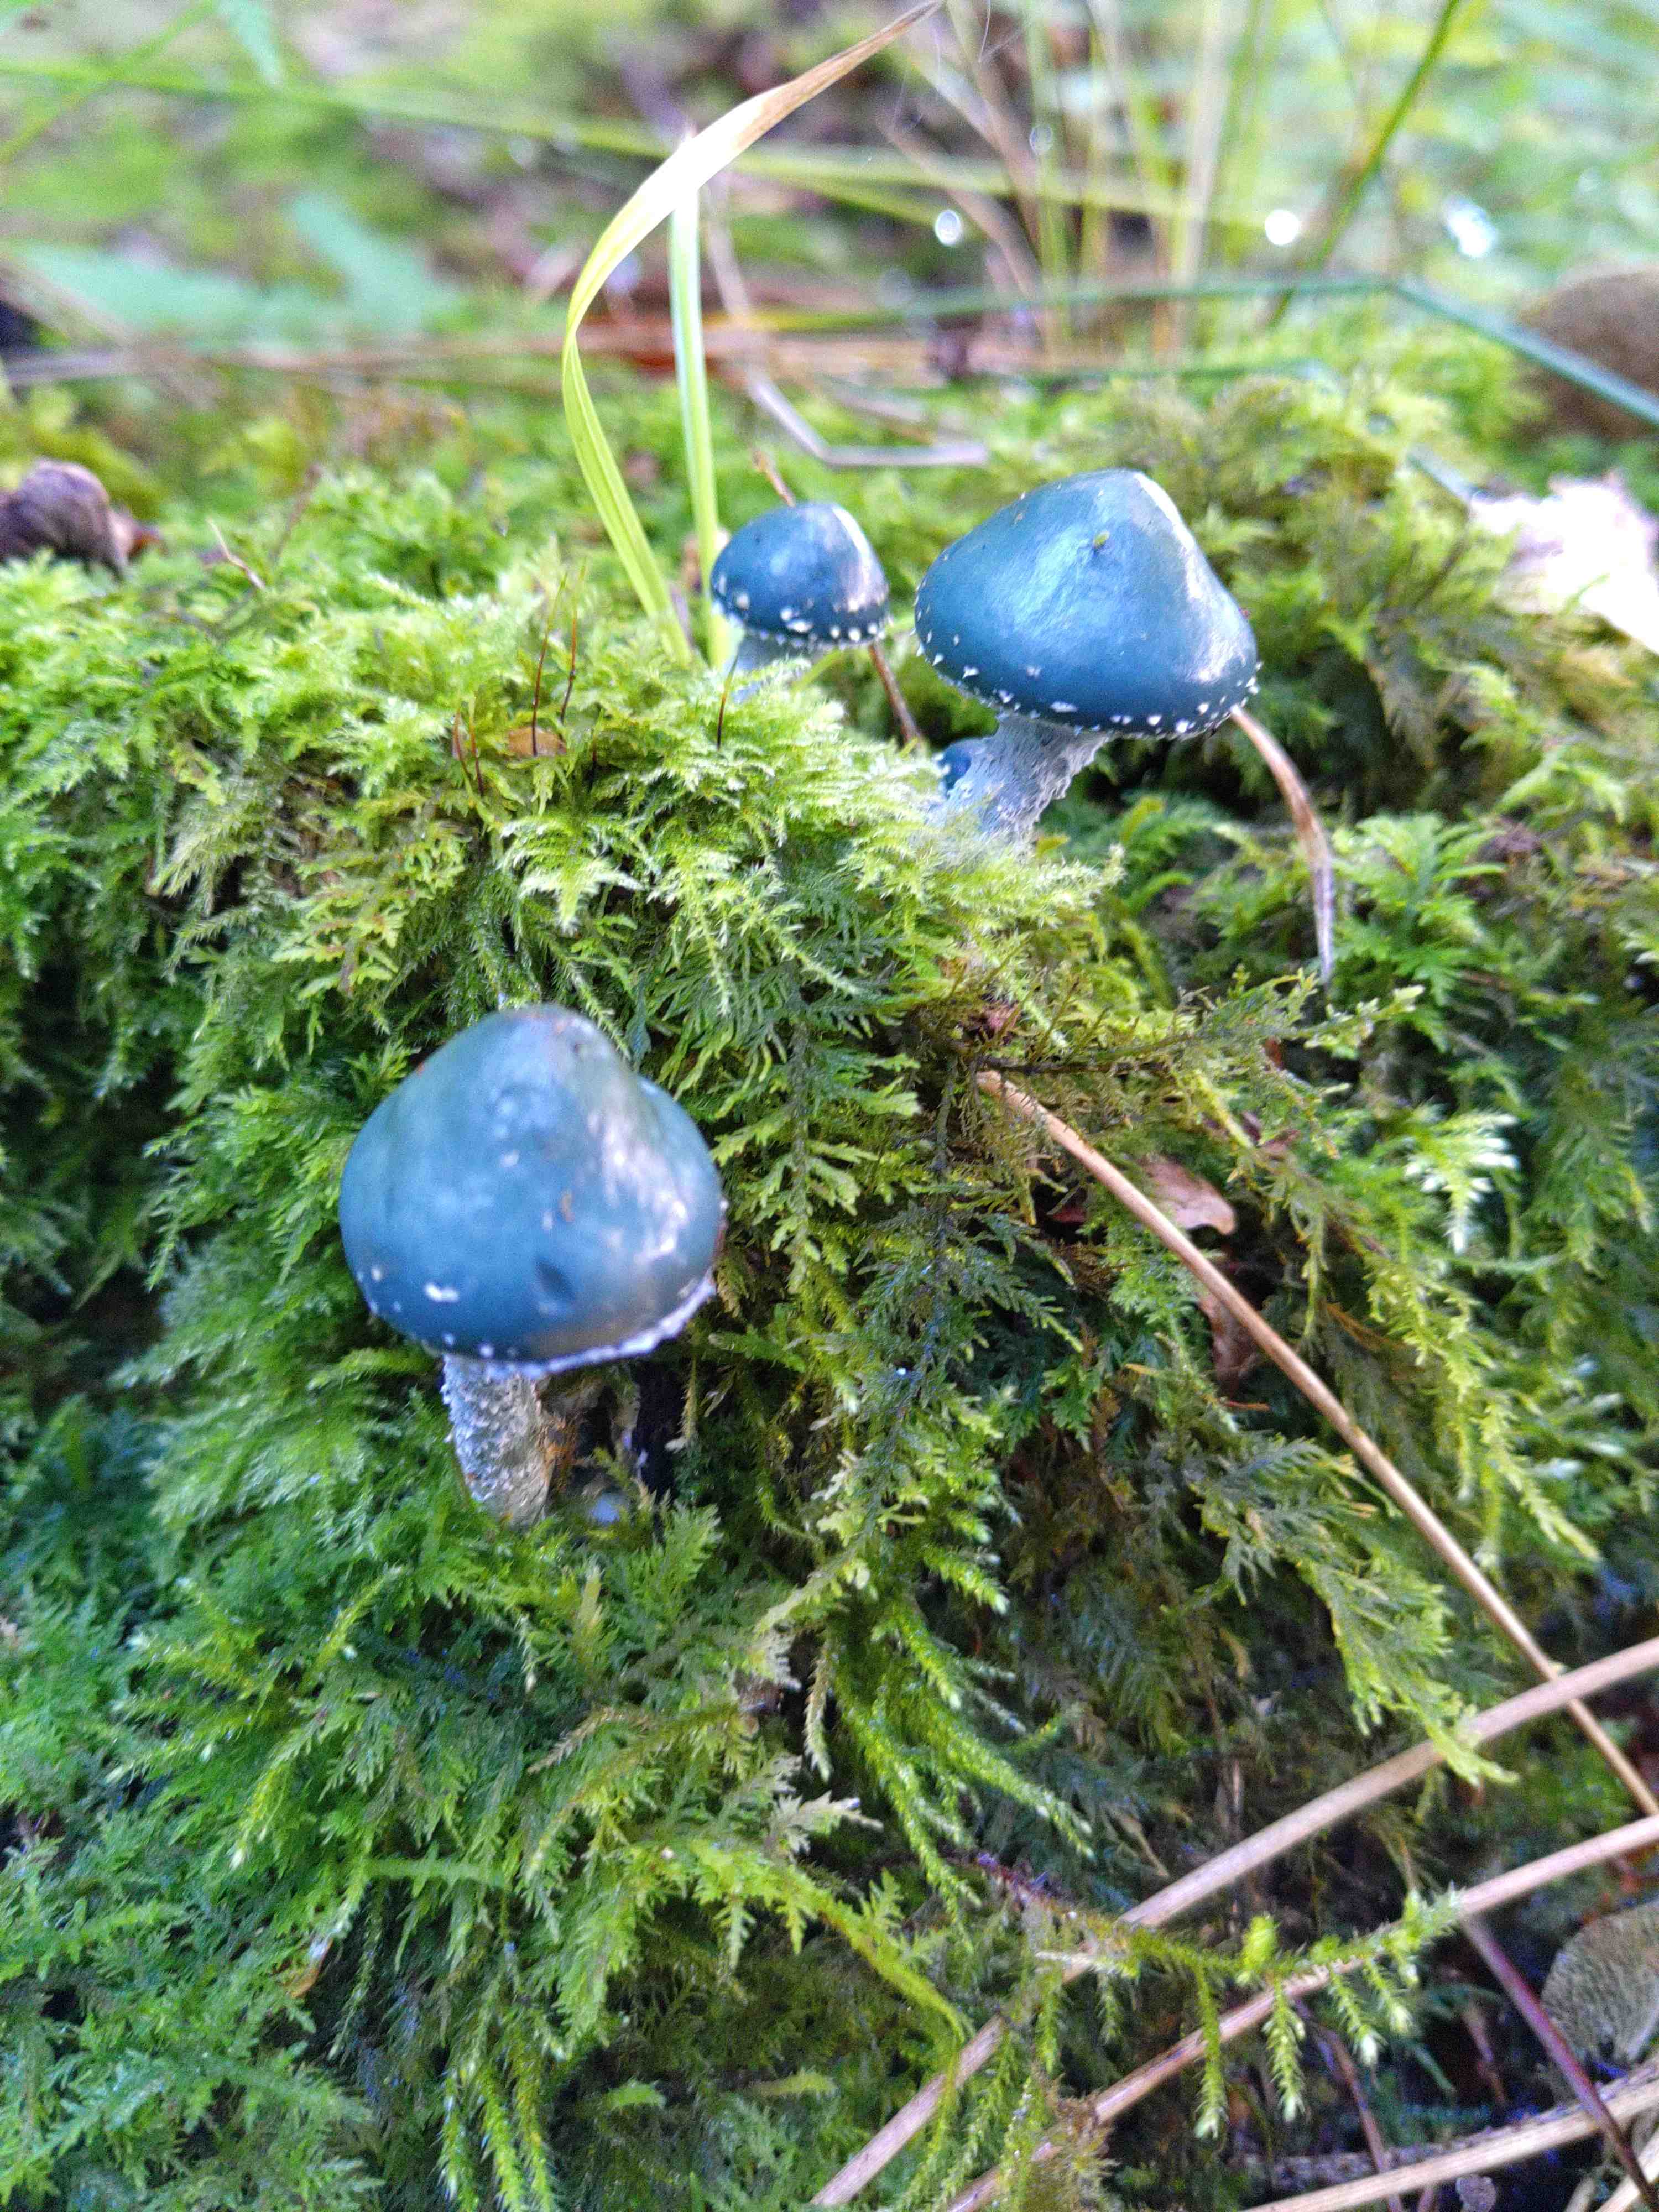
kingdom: Fungi
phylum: Basidiomycota
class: Agaricomycetes
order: Agaricales
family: Strophariaceae
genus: Stropharia
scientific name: Stropharia
